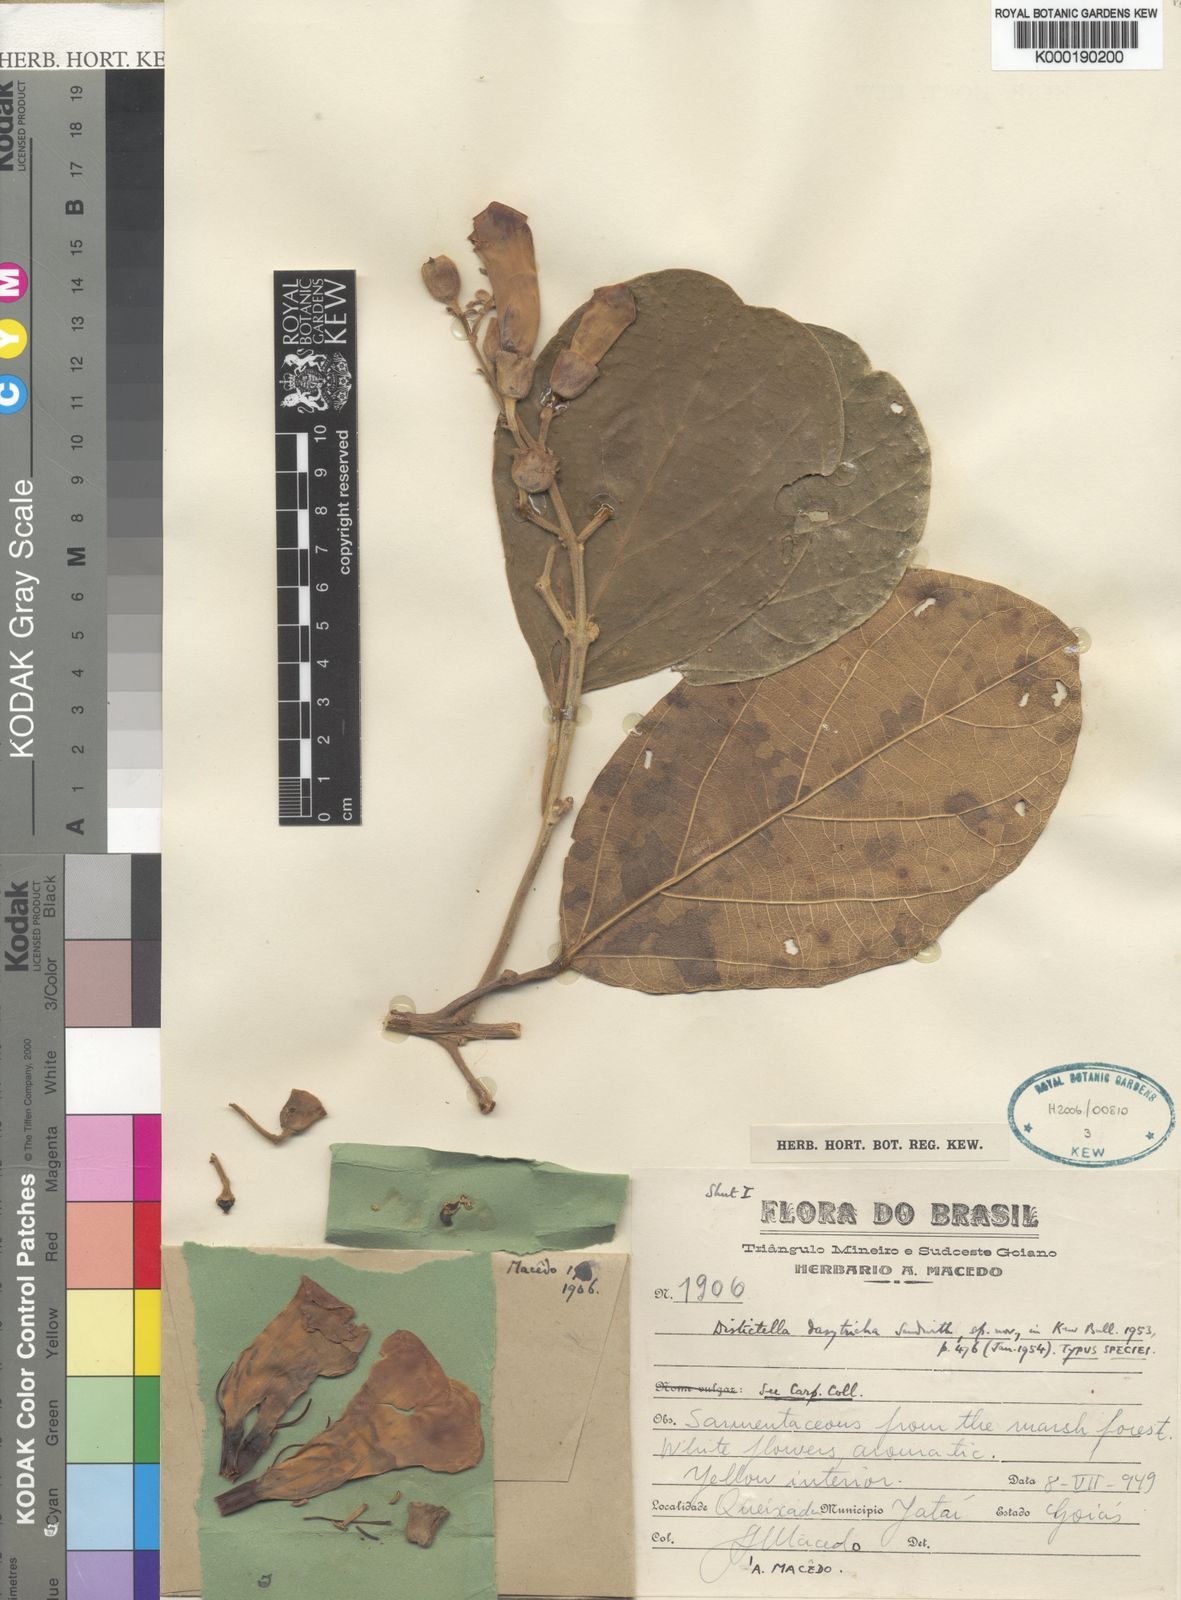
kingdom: Plantae
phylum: Tracheophyta
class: Magnoliopsida
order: Lamiales
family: Bignoniaceae
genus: Amphilophium
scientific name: Amphilophium dasytrichum
